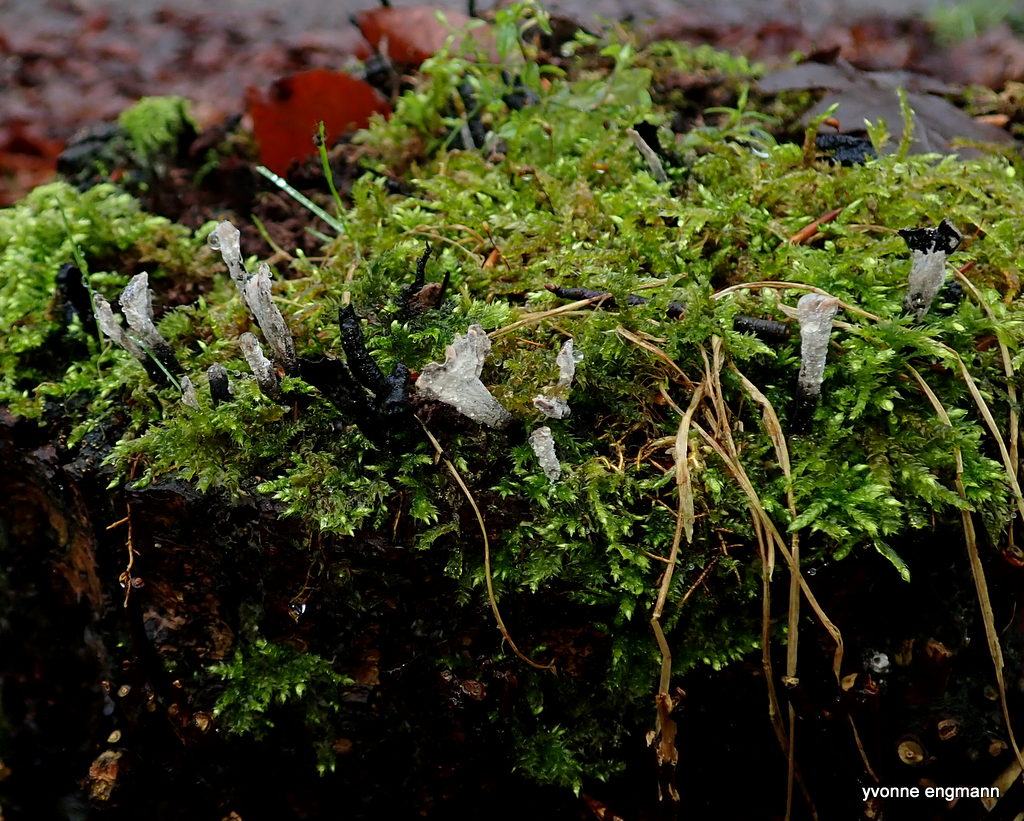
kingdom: Fungi
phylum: Ascomycota
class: Sordariomycetes
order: Xylariales
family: Xylariaceae
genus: Xylaria
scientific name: Xylaria hypoxylon
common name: grenet stødsvamp
